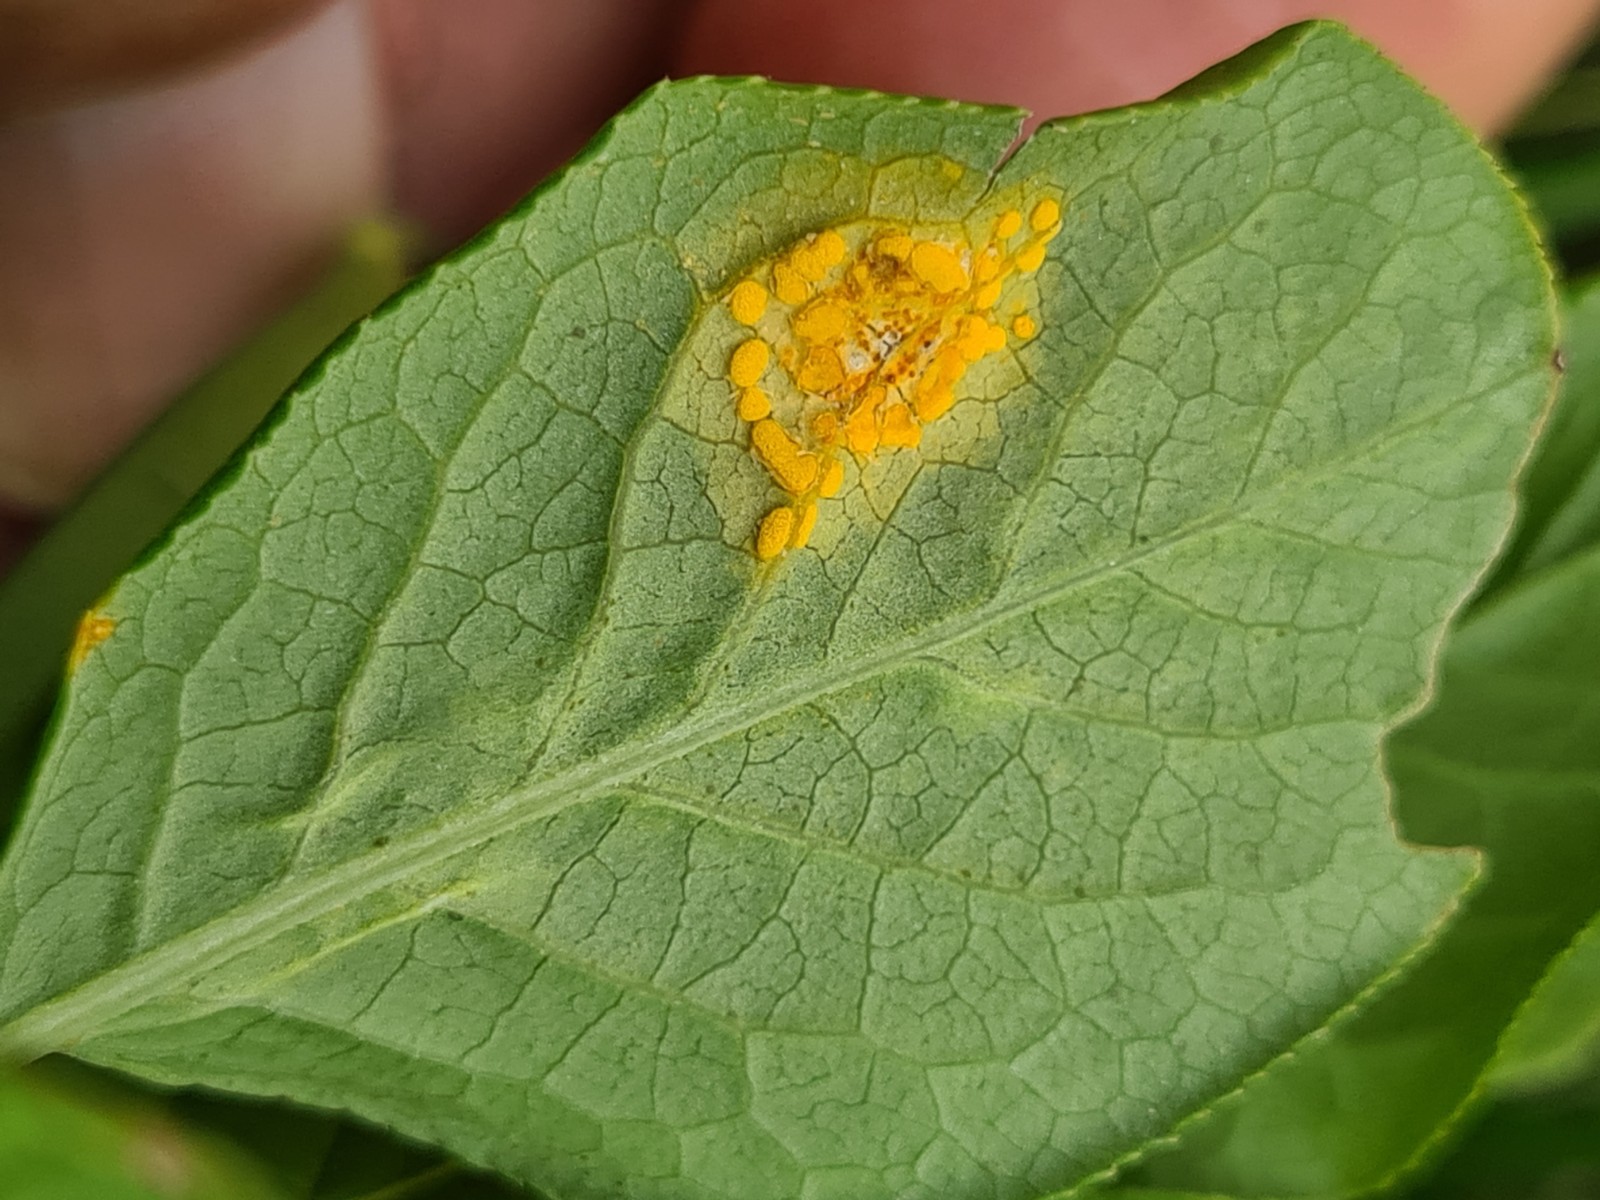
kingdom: Fungi
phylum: Basidiomycota
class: Pucciniomycetes
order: Pucciniales
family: Melampsoraceae
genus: Melampsora
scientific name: Melampsora epitea
